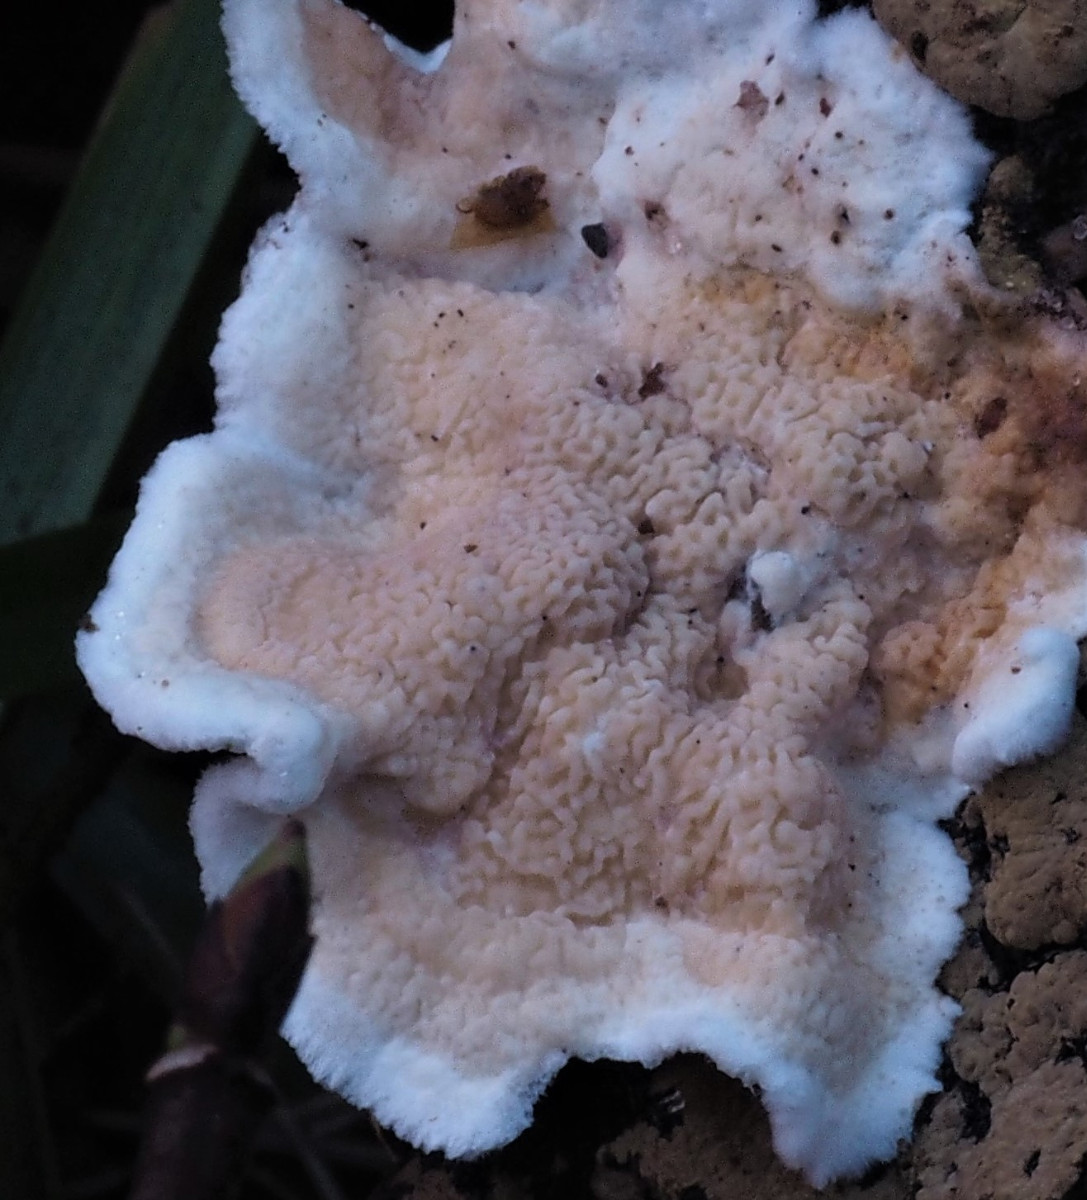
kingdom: Fungi
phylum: Basidiomycota
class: Agaricomycetes
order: Polyporales
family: Irpicaceae
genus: Byssomerulius
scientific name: Byssomerulius corium
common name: læder-åresvamp
